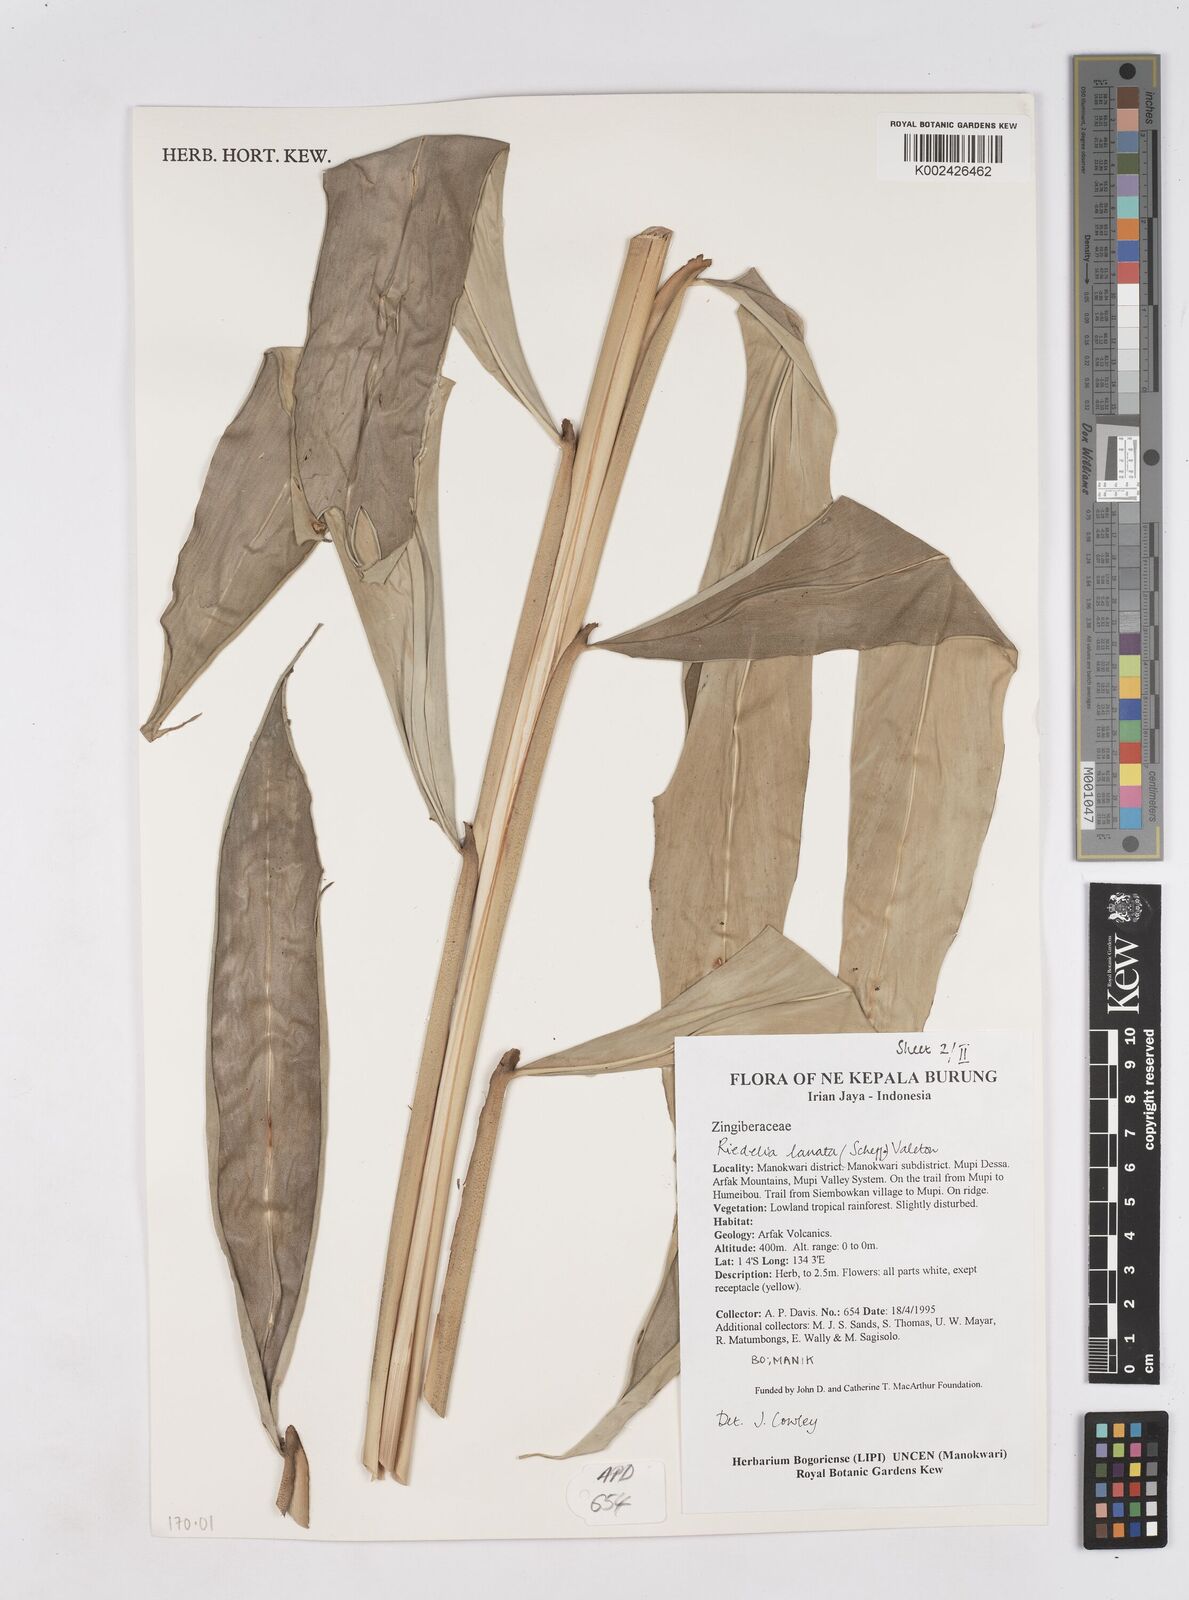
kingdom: Plantae
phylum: Tracheophyta
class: Liliopsida
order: Zingiberales
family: Zingiberaceae
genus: Riedelia
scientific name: Riedelia lanata
